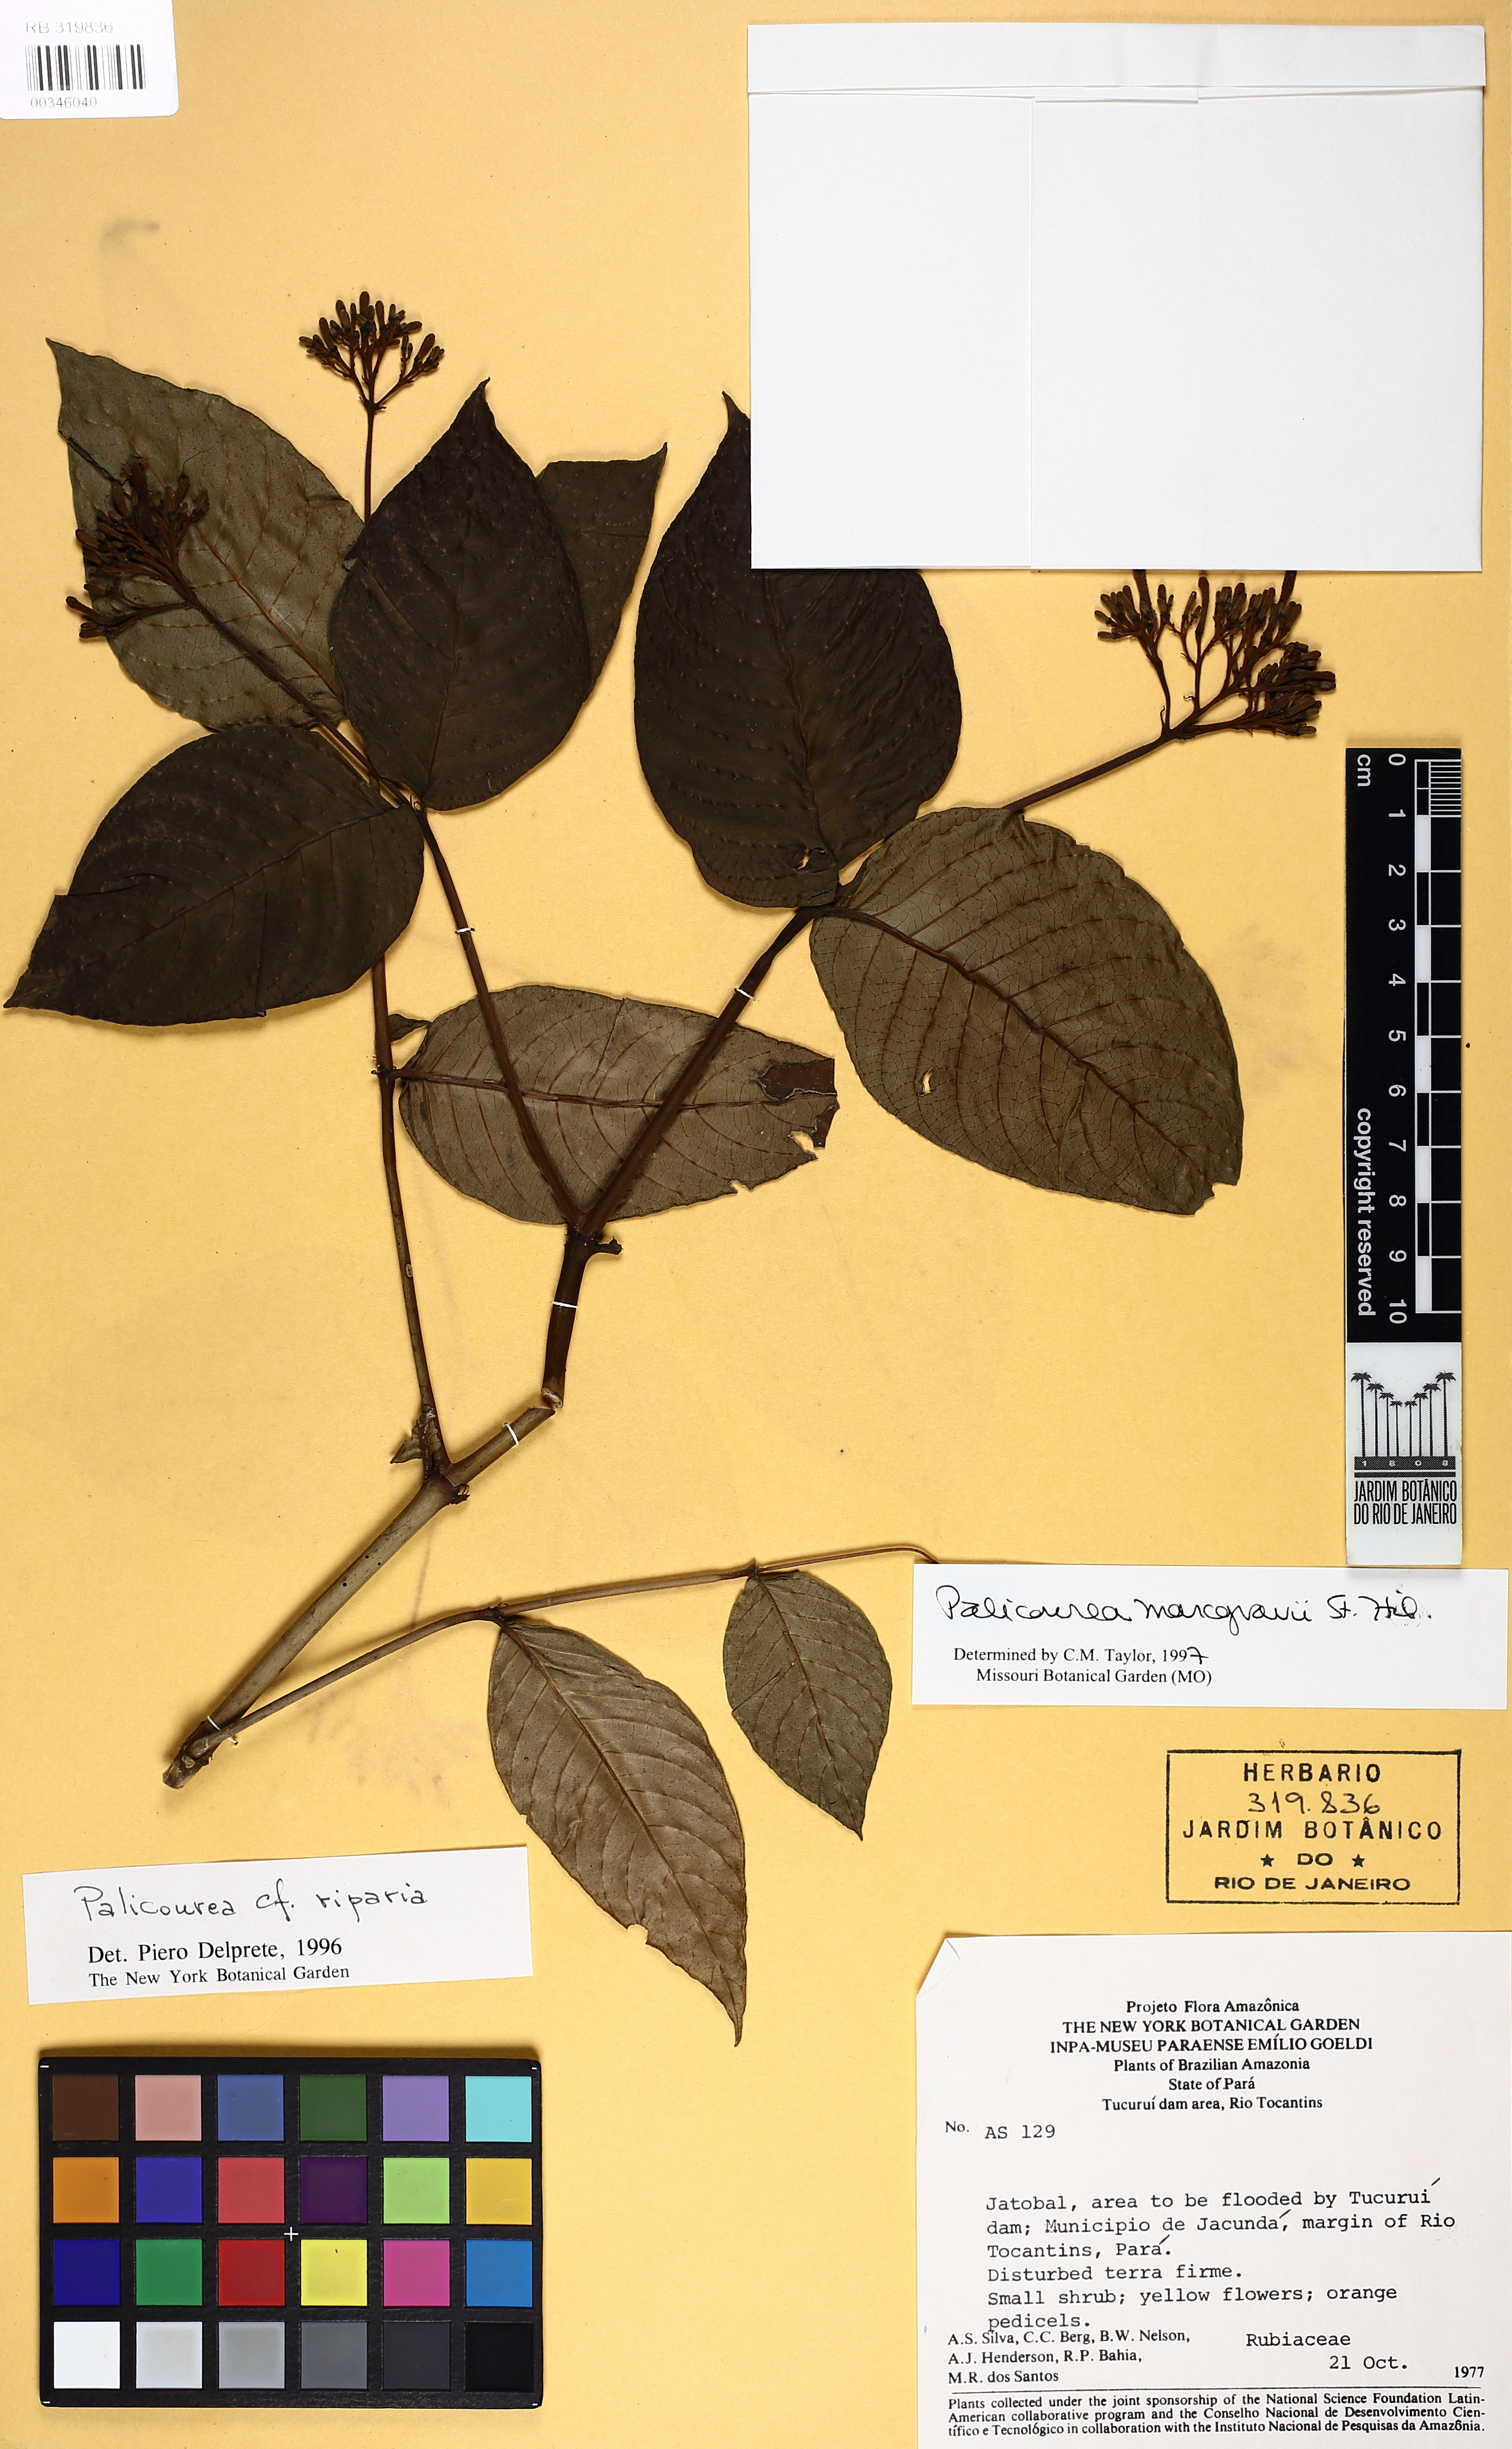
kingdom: Plantae
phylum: Tracheophyta
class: Magnoliopsida
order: Gentianales
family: Rubiaceae
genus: Palicourea
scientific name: Palicourea marcgravii
